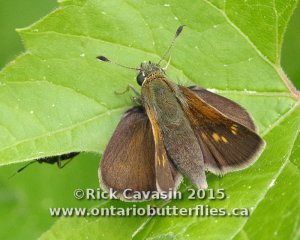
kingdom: Animalia
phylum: Arthropoda
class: Insecta
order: Lepidoptera
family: Hesperiidae
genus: Polites
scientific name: Polites themistocles
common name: Tawny-edged Skipper
